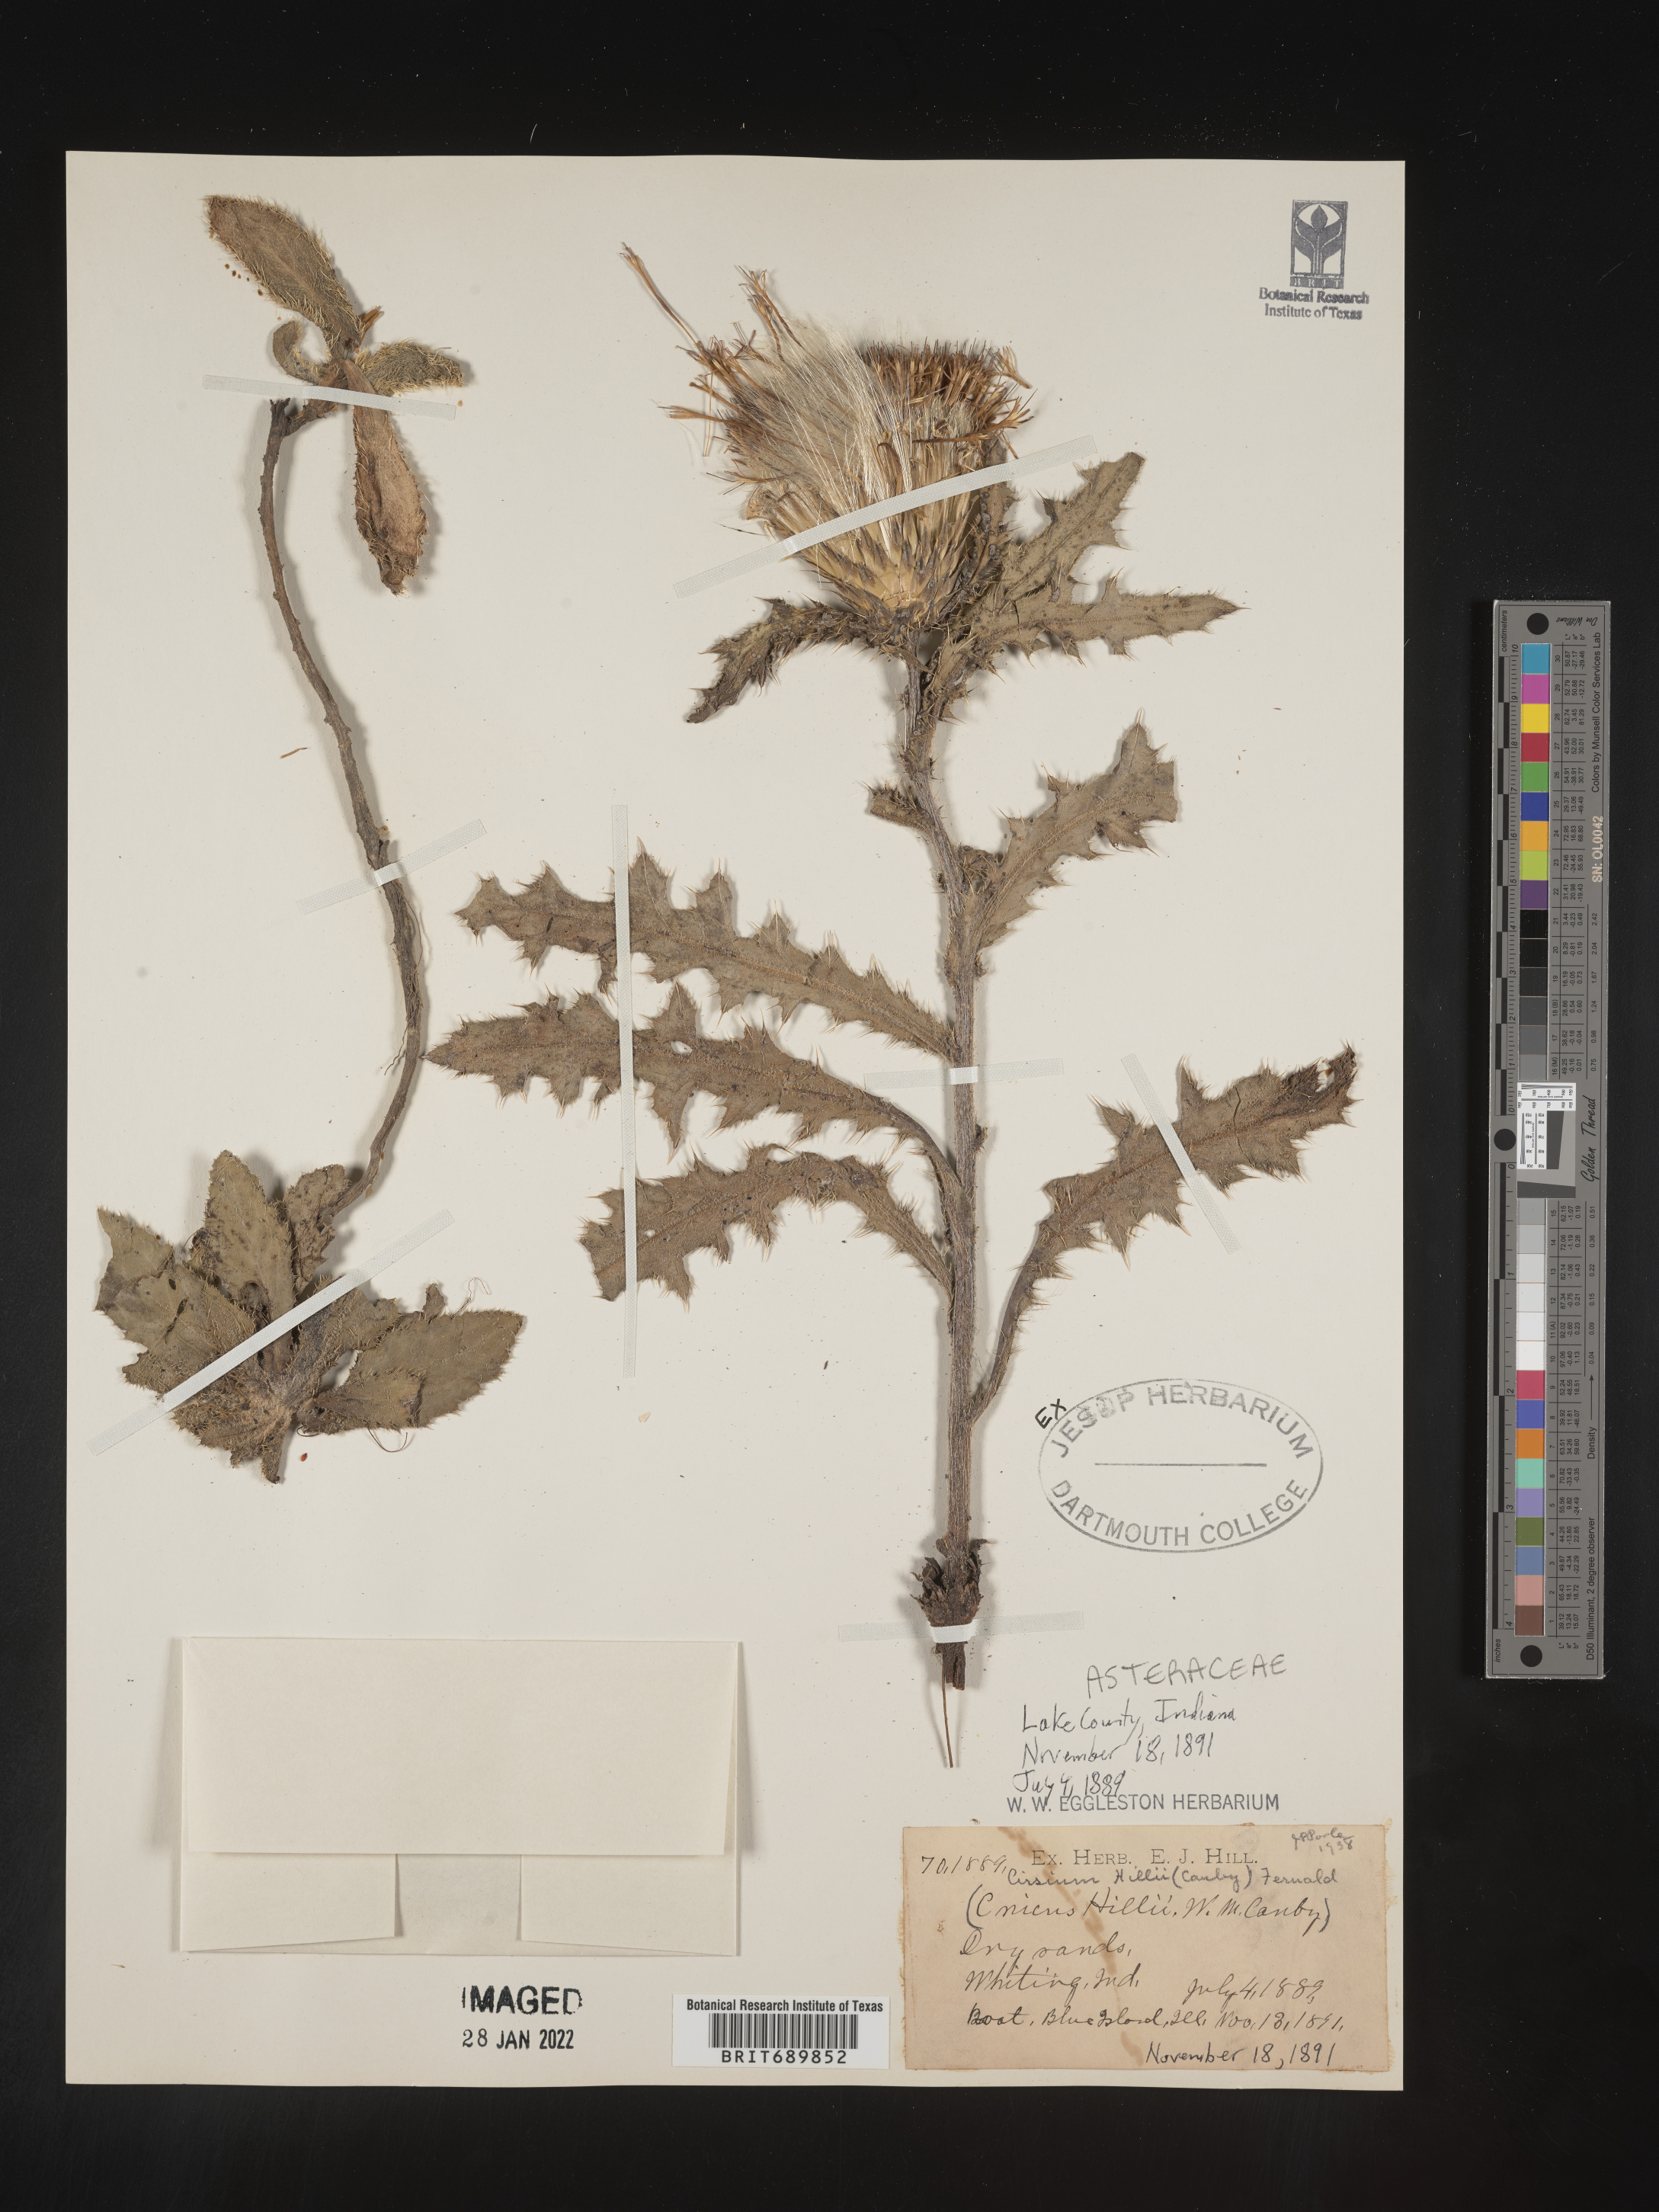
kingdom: Plantae
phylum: Tracheophyta
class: Magnoliopsida
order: Asterales
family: Asteraceae
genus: Cirsium
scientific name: Cirsium pumilum
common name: Pasture thistle
